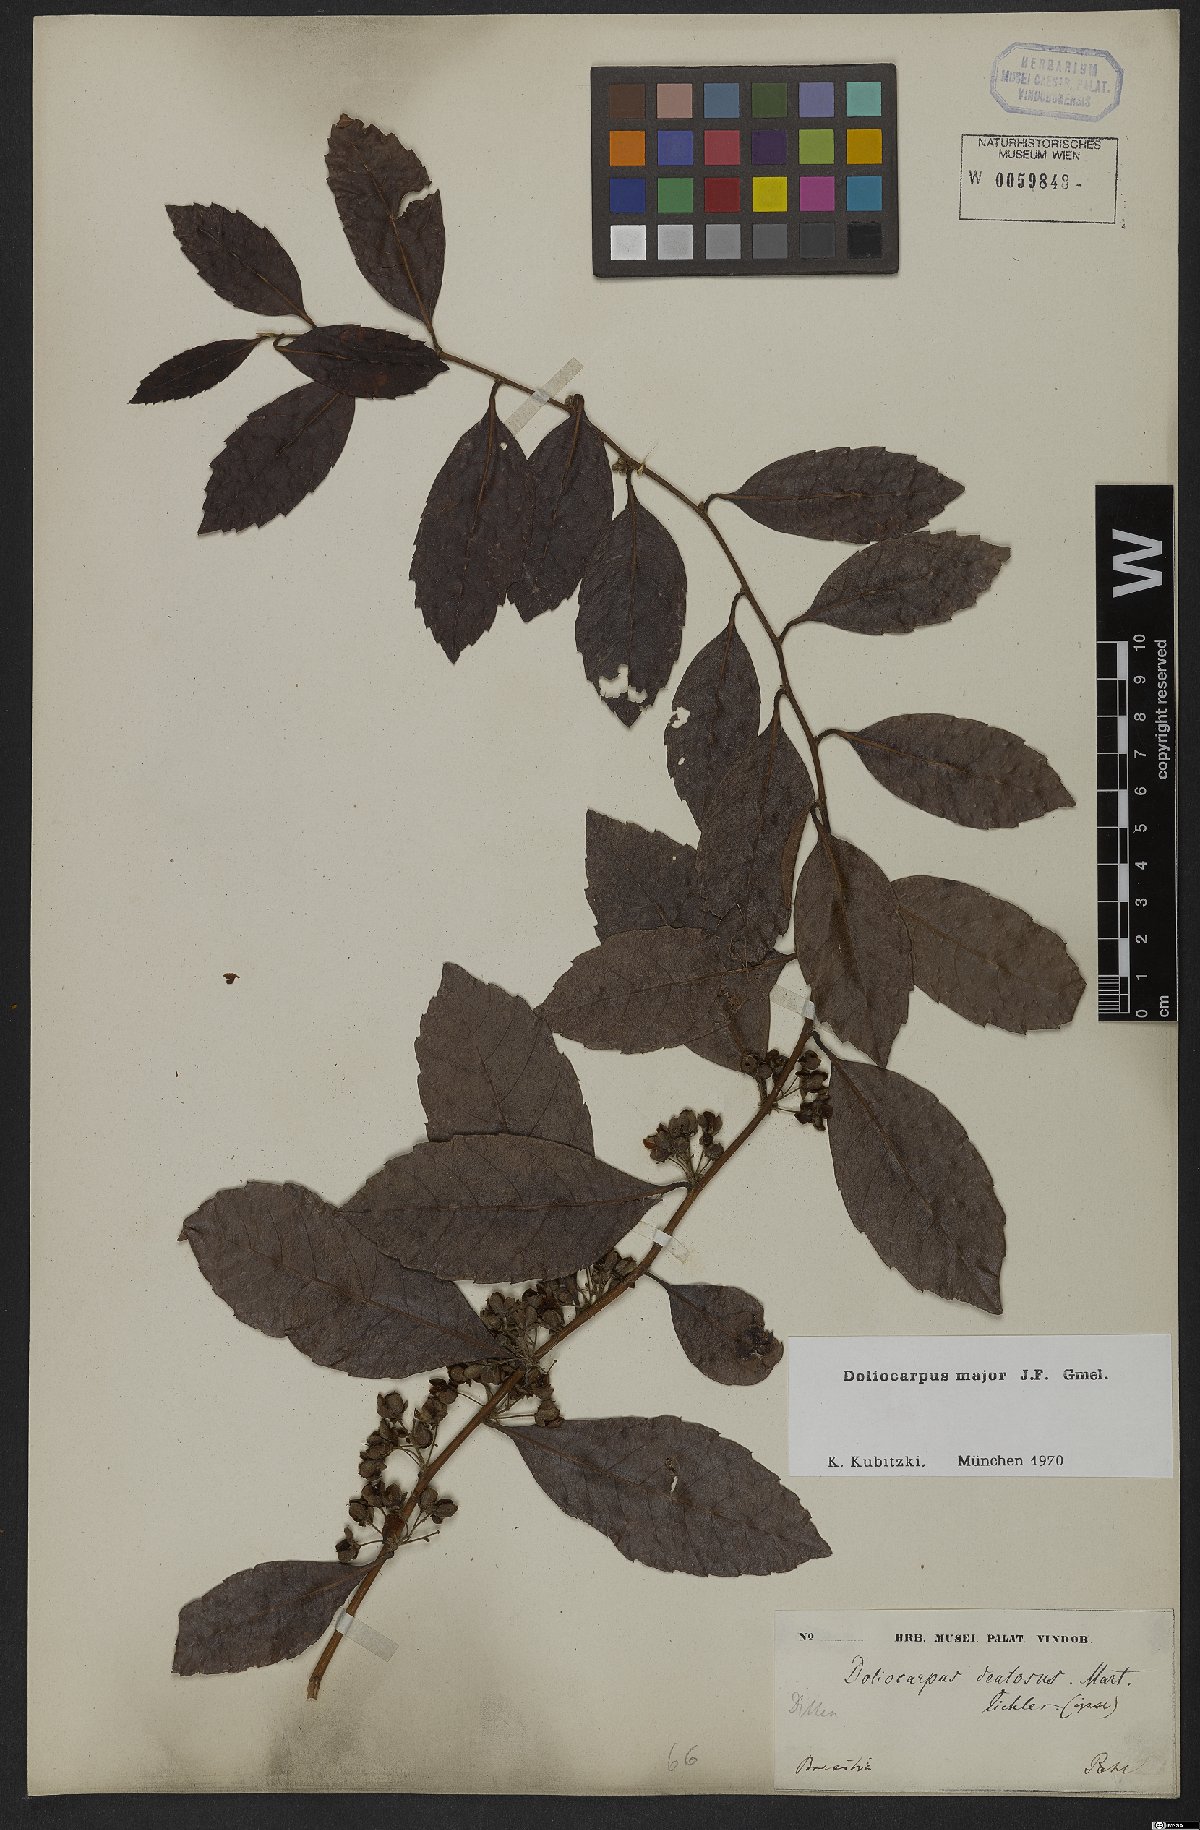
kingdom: Plantae
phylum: Tracheophyta
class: Magnoliopsida
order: Dilleniales
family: Dilleniaceae
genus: Doliocarpus
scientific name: Doliocarpus major
